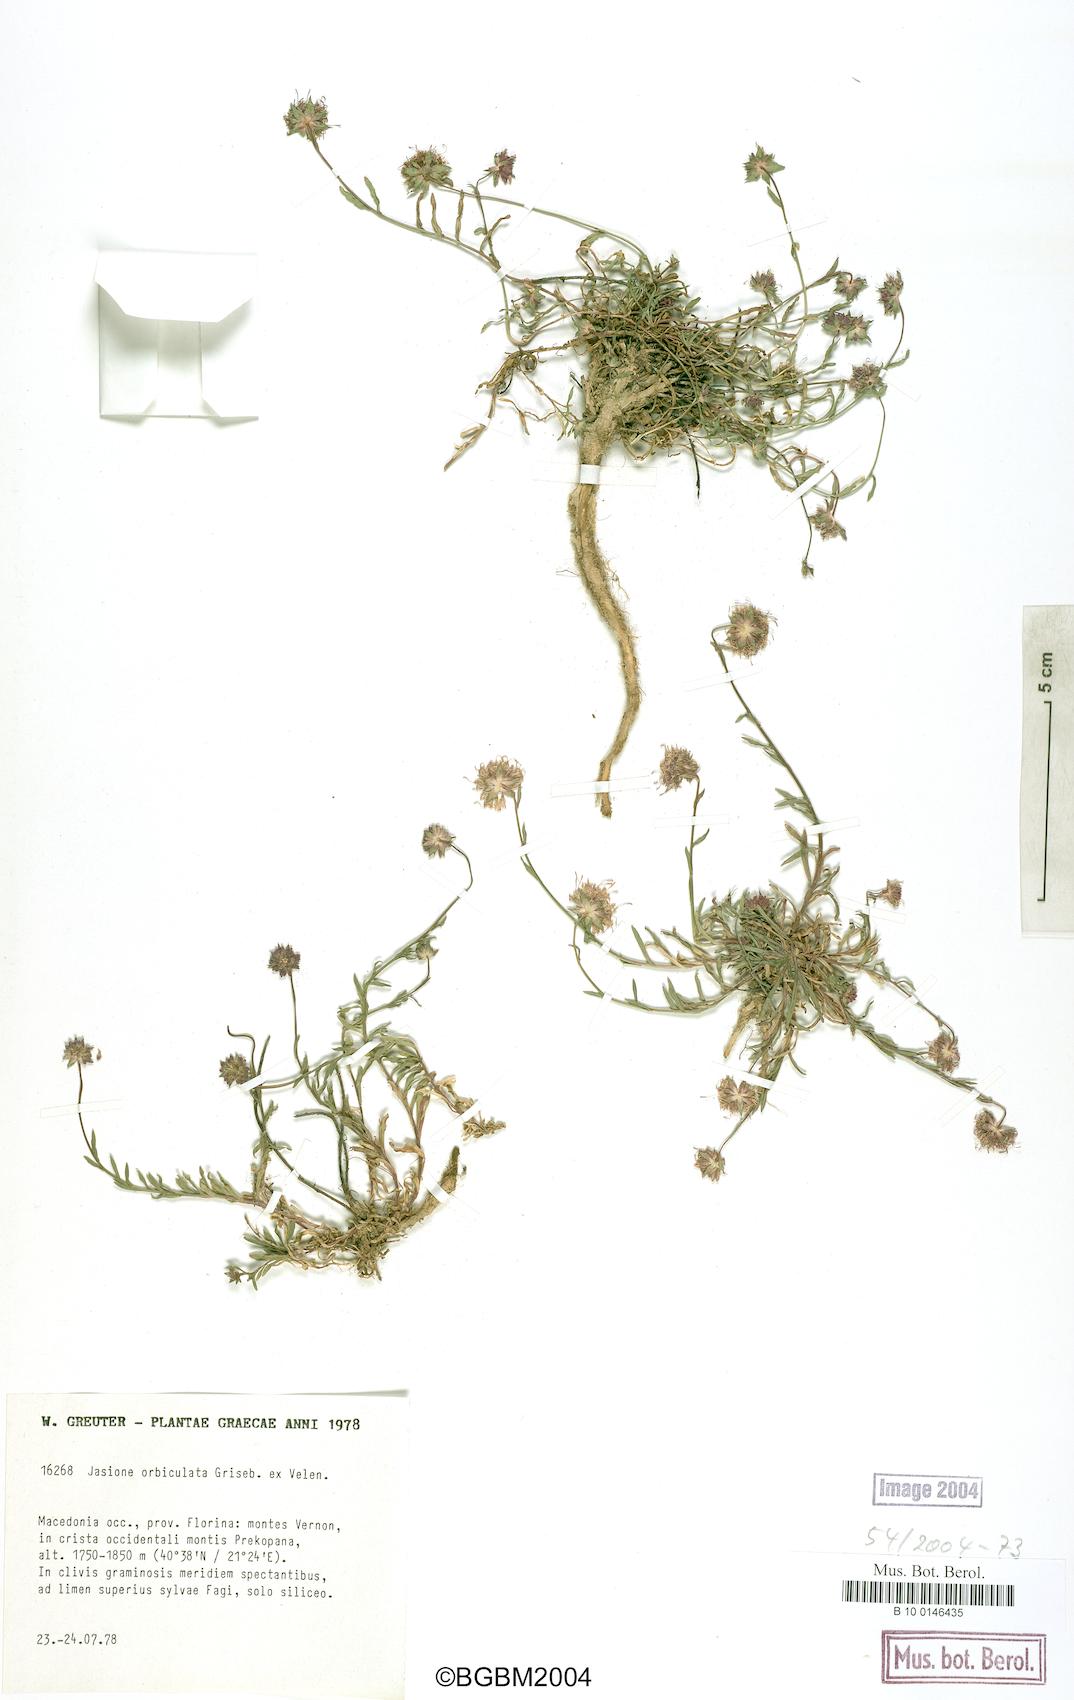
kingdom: Plantae
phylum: Tracheophyta
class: Magnoliopsida
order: Asterales
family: Campanulaceae
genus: Jasione
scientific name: Jasione orbiculata
